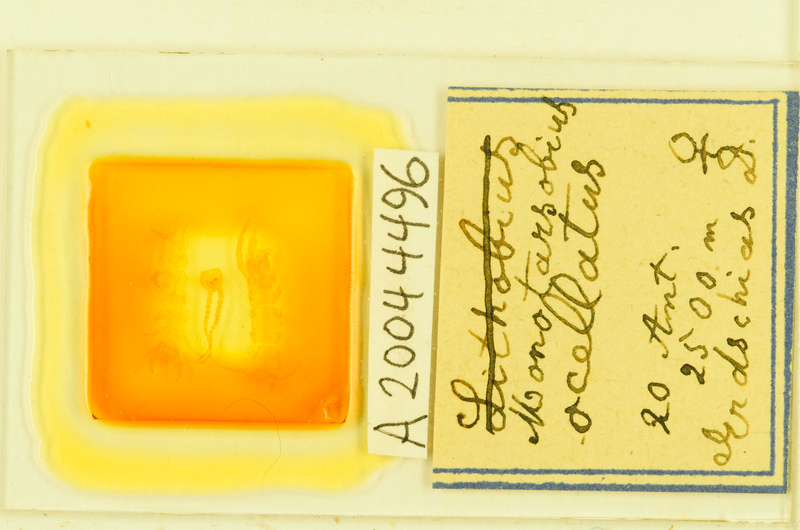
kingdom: Animalia
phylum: Arthropoda
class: Chilopoda
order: Lithobiomorpha
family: Lithobiidae
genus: Monotarsobius
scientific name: Monotarsobius
